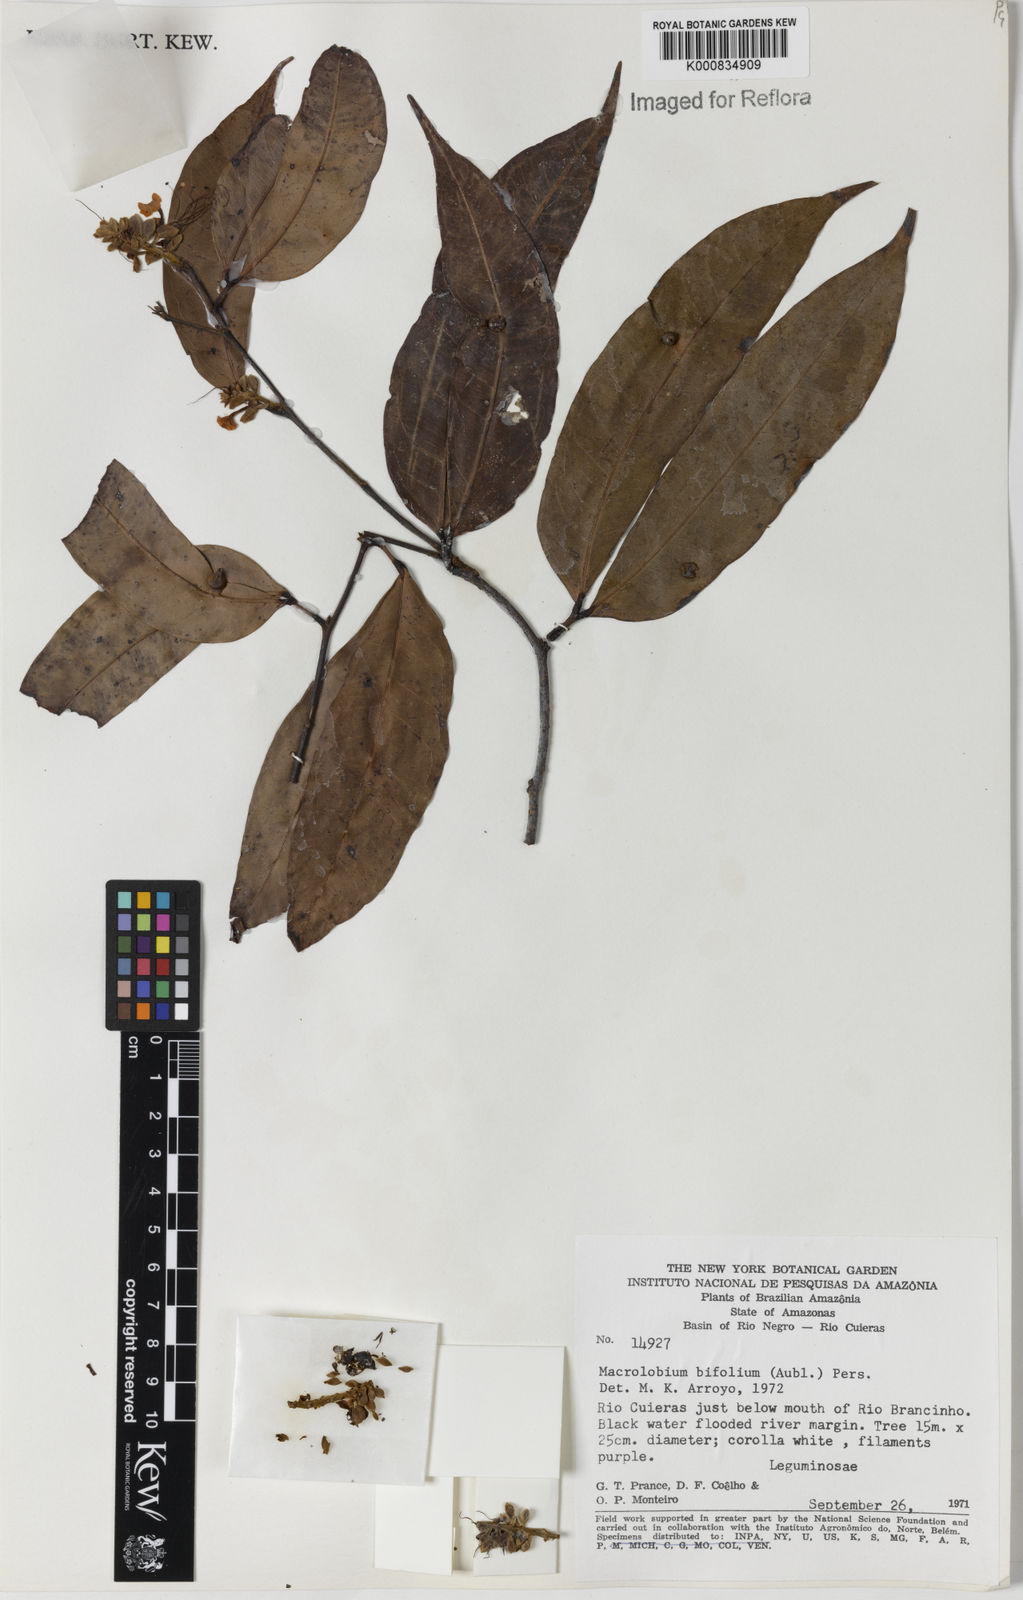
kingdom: Plantae
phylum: Tracheophyta
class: Magnoliopsida
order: Fabales
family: Fabaceae
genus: Macrolobium
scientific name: Macrolobium bifolium
